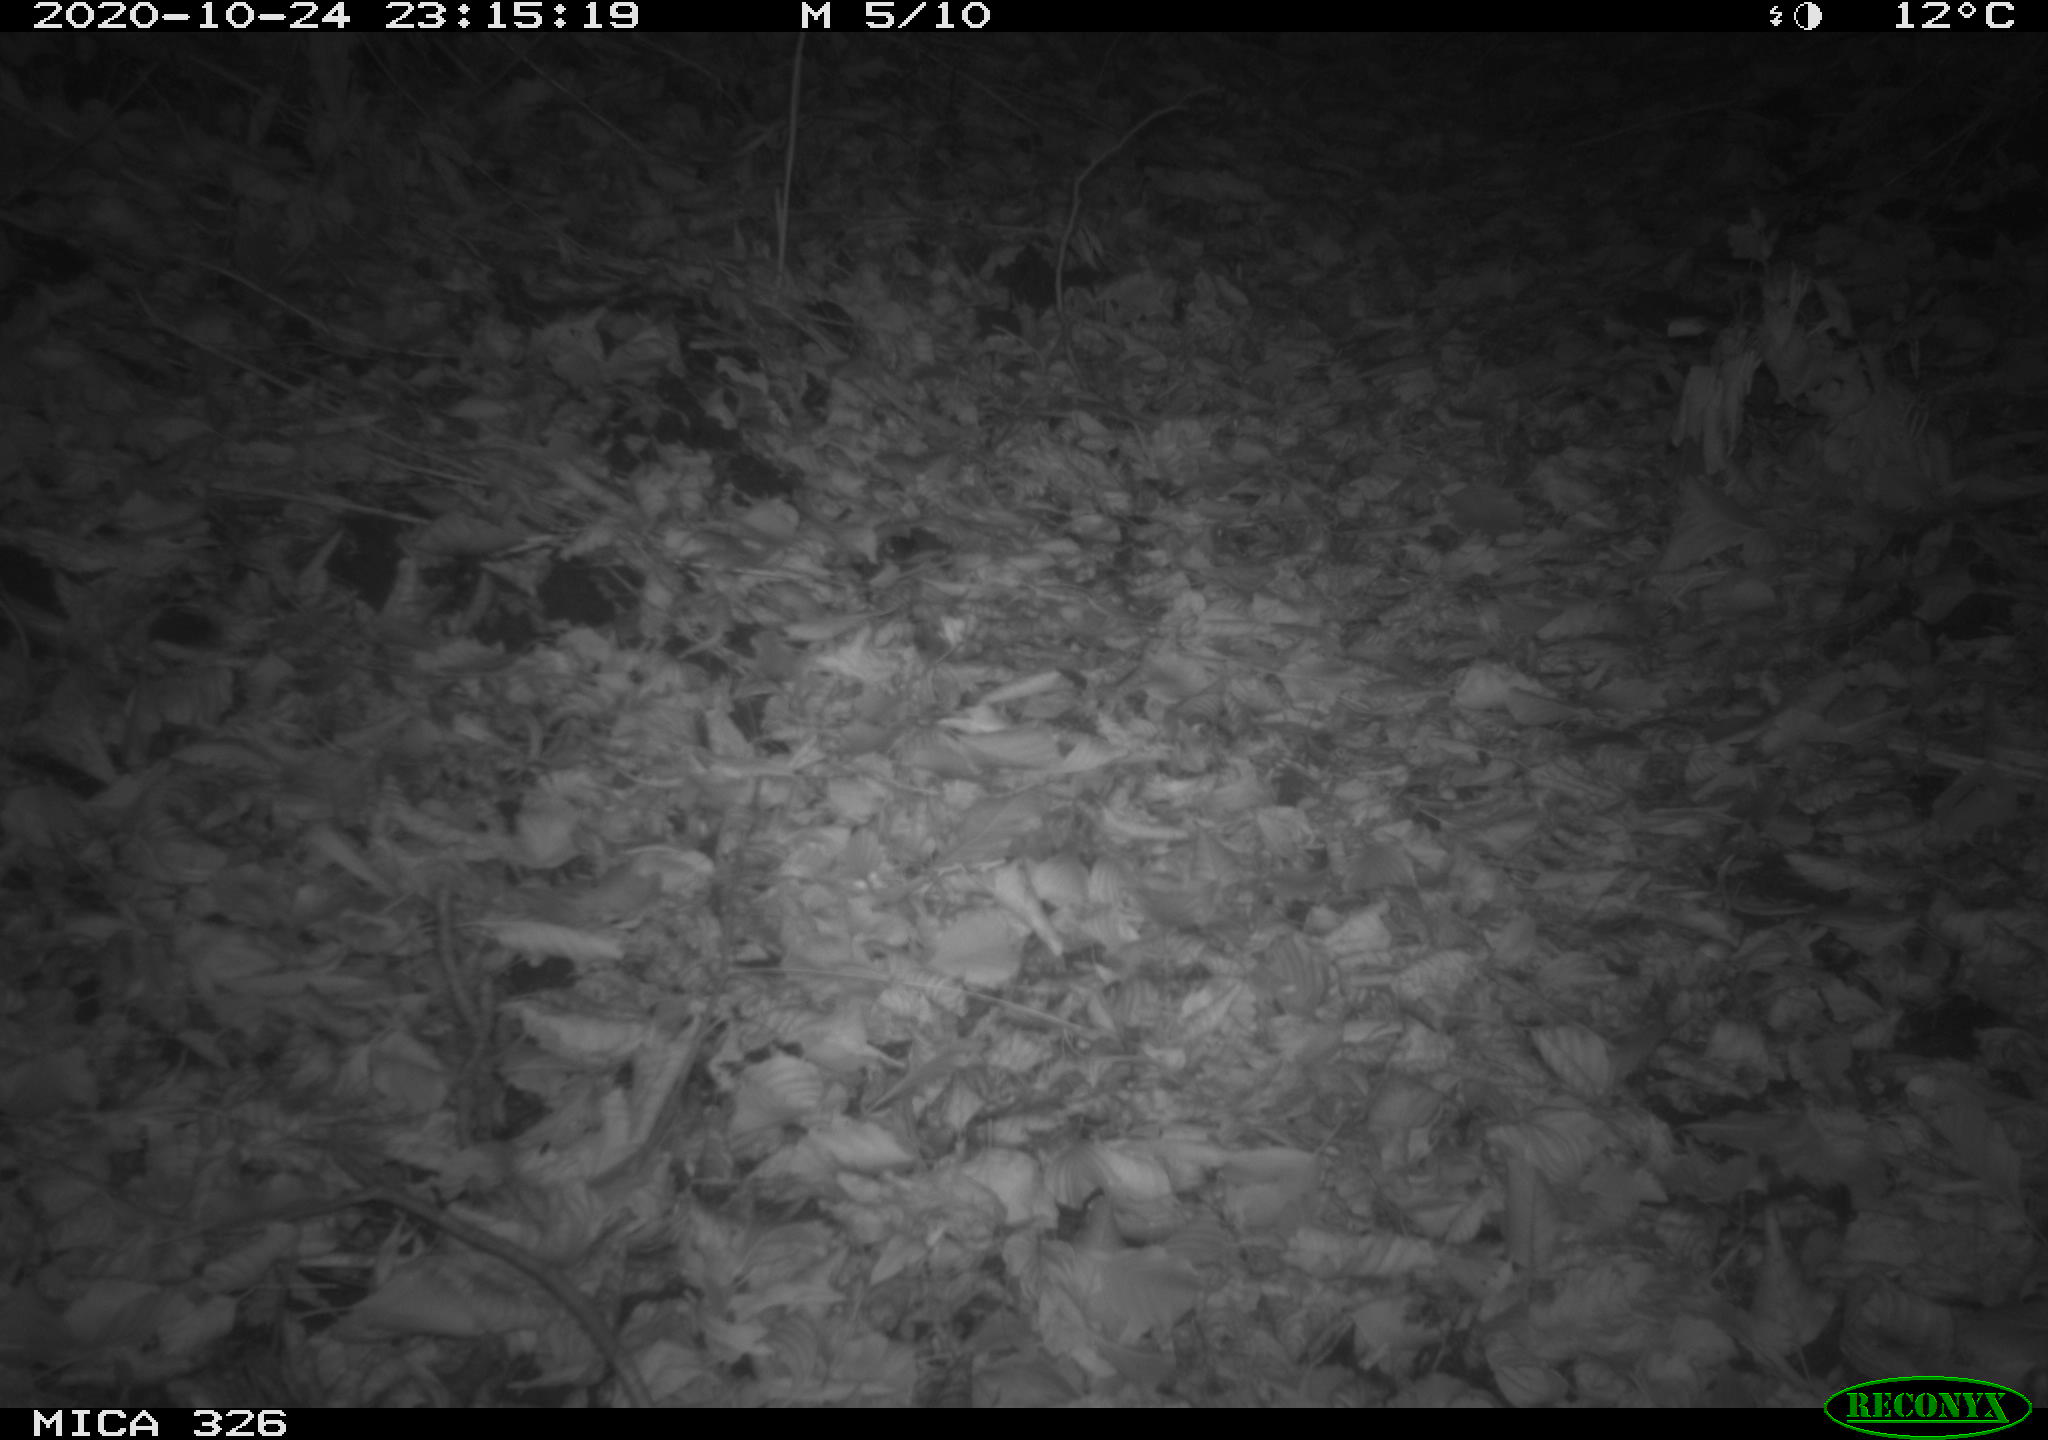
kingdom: Animalia
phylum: Chordata
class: Mammalia
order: Rodentia
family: Muridae
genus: Rattus
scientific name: Rattus norvegicus
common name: Brown rat
